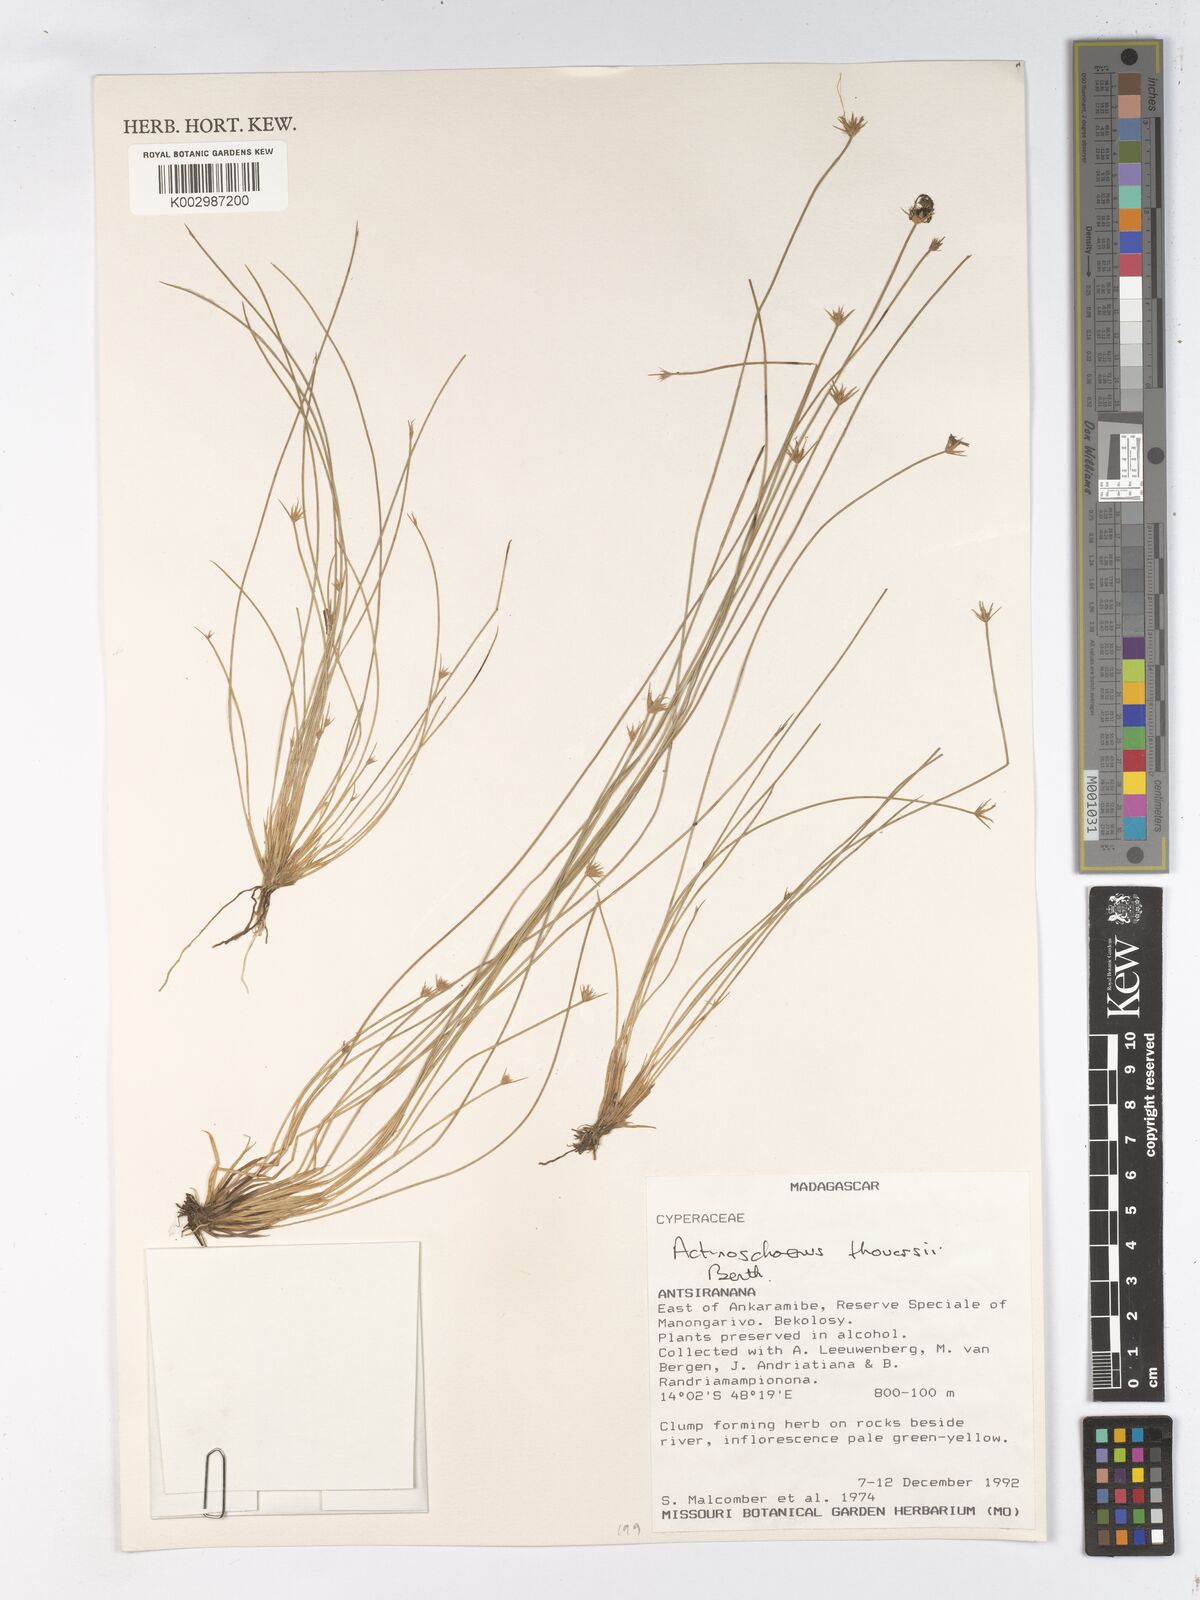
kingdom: Plantae
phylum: Tracheophyta
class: Liliopsida
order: Poales
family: Cyperaceae
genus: Actinoschoenus
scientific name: Actinoschoenus aphyllus
